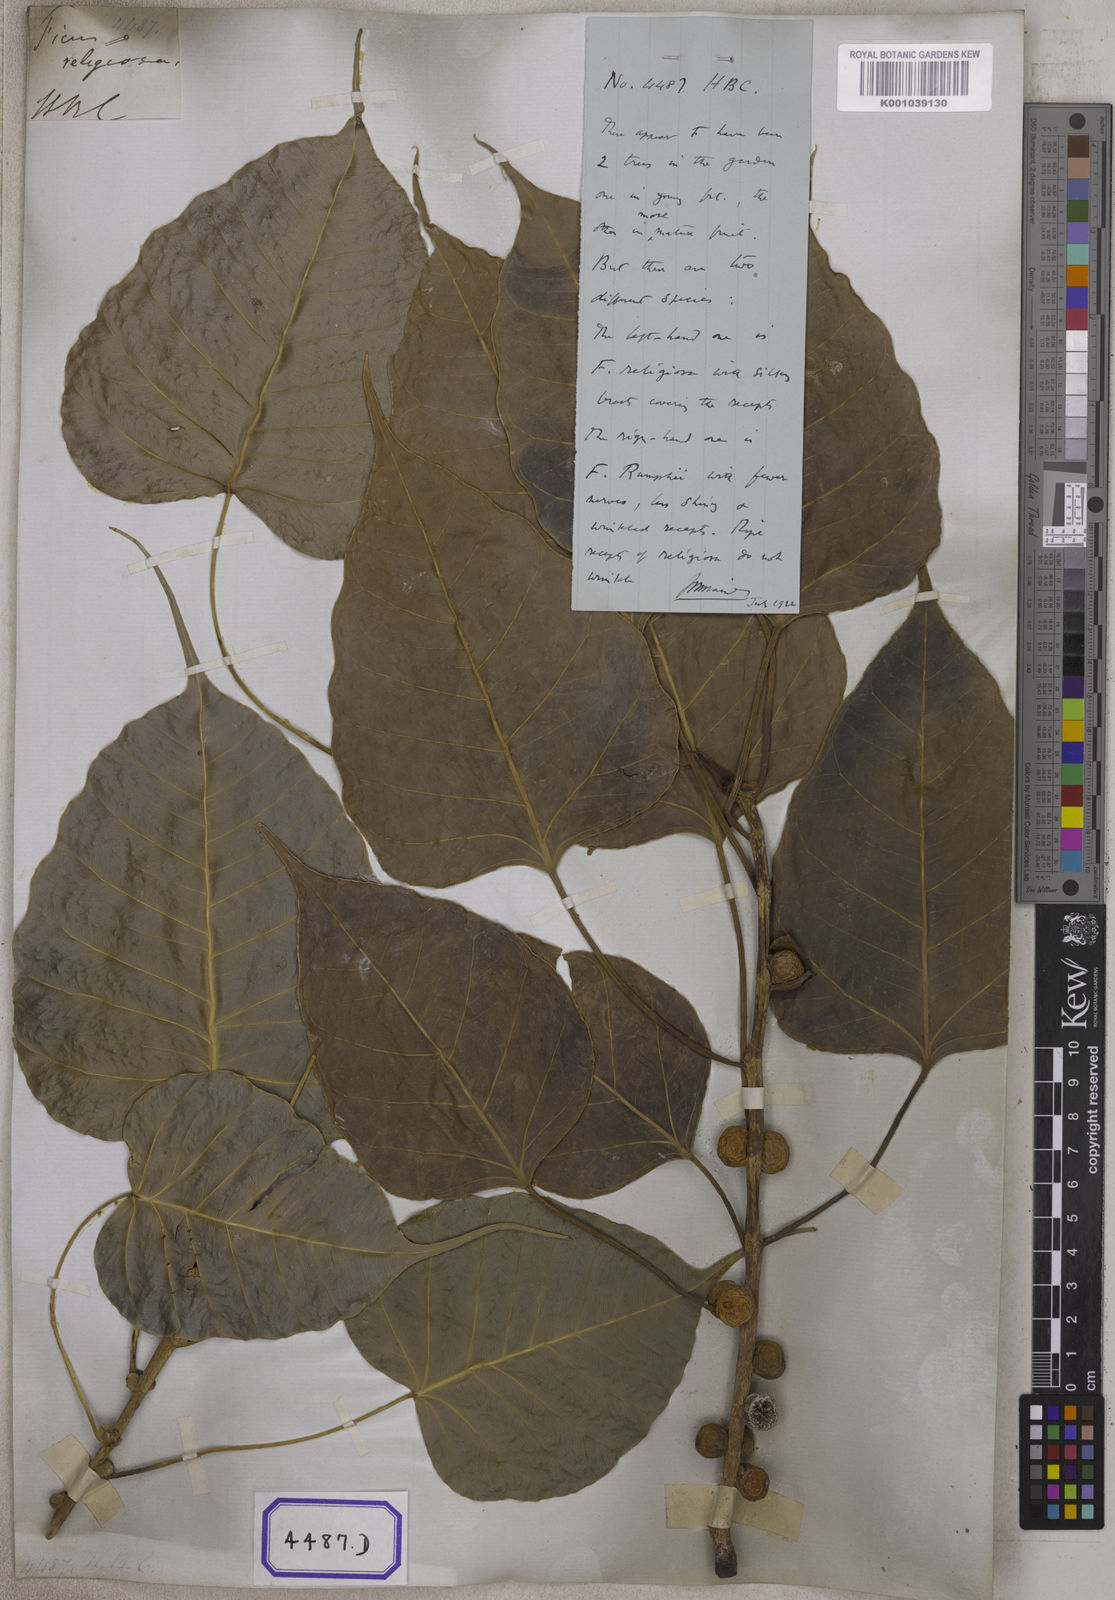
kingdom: Plantae
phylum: Tracheophyta
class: Magnoliopsida
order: Rosales
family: Moraceae
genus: Ficus
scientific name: Ficus religiosa
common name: Bodhi tree
